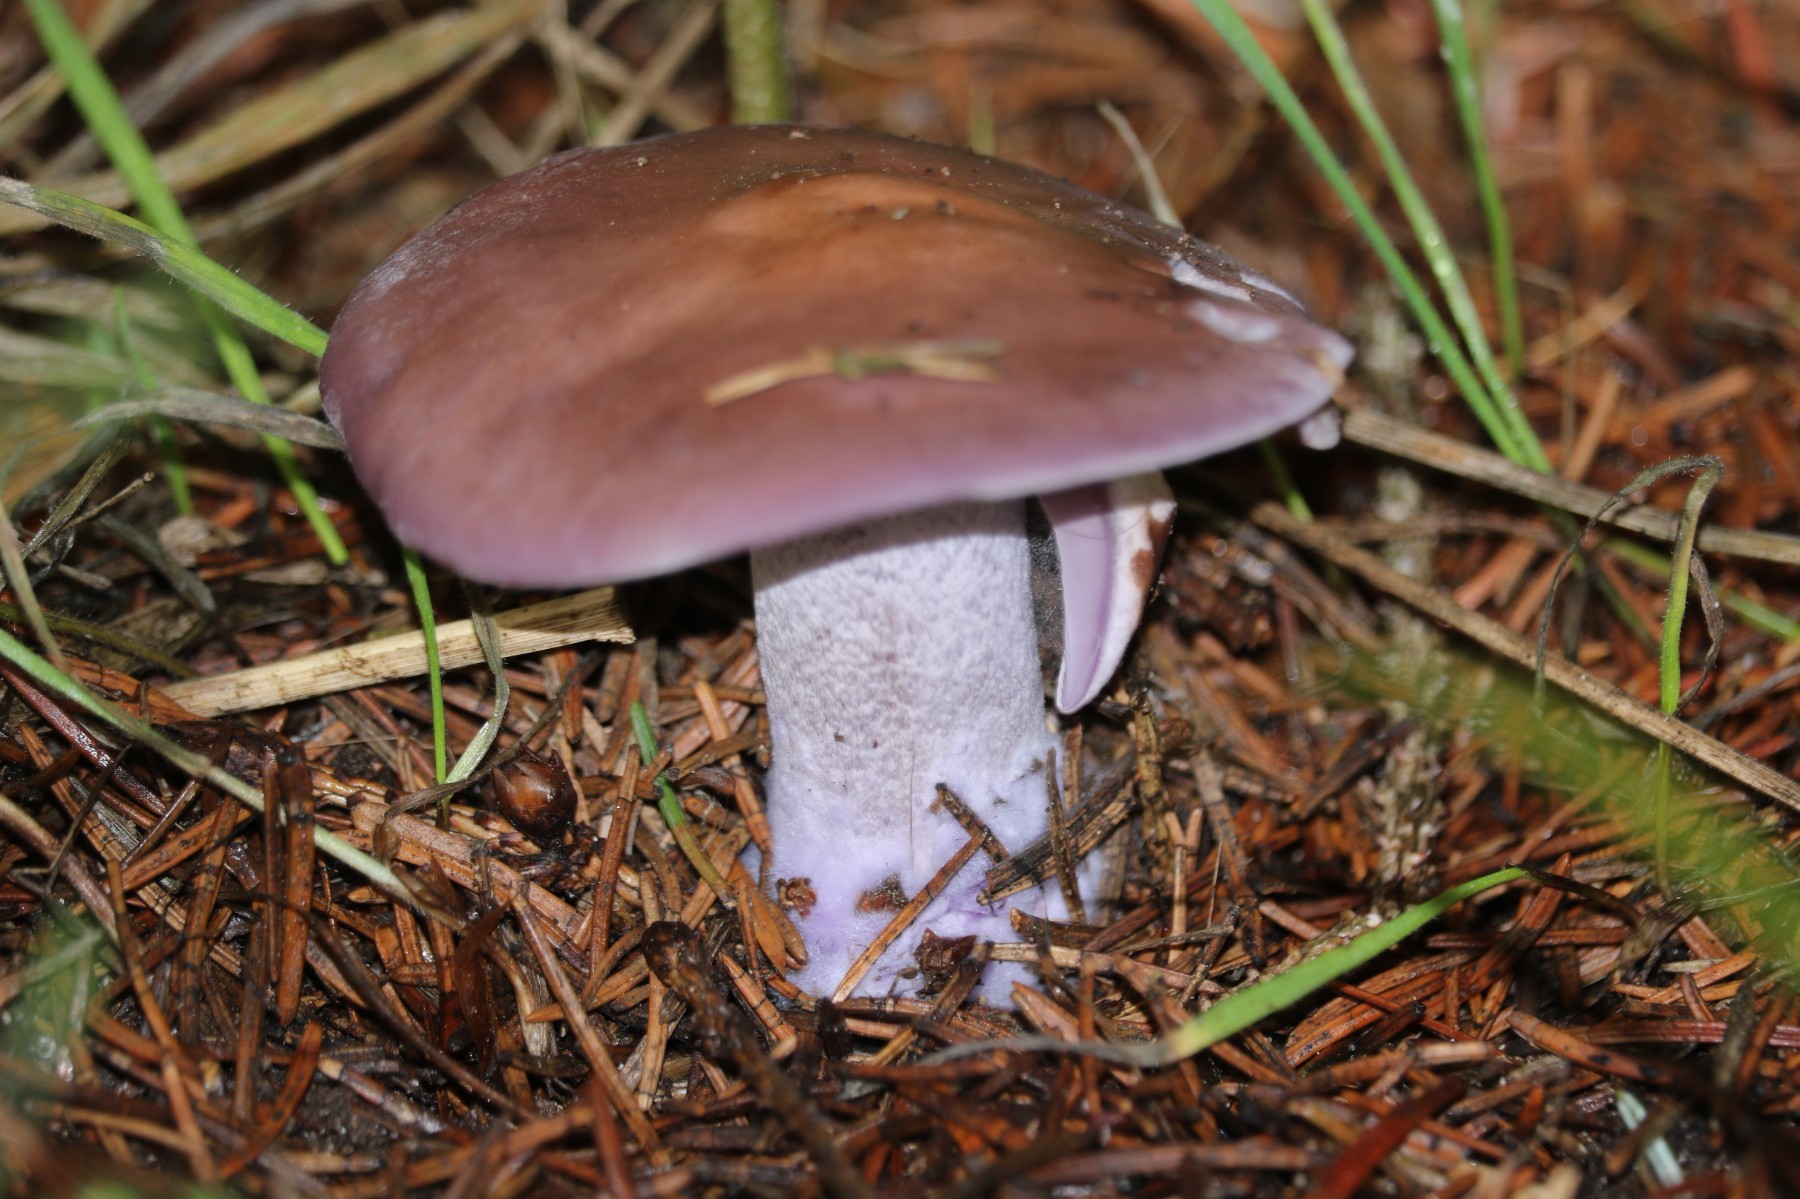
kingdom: Fungi
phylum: Basidiomycota
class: Agaricomycetes
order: Agaricales
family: Tricholomataceae
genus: Lepista
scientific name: Lepista nuda
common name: violet hekseringshat
